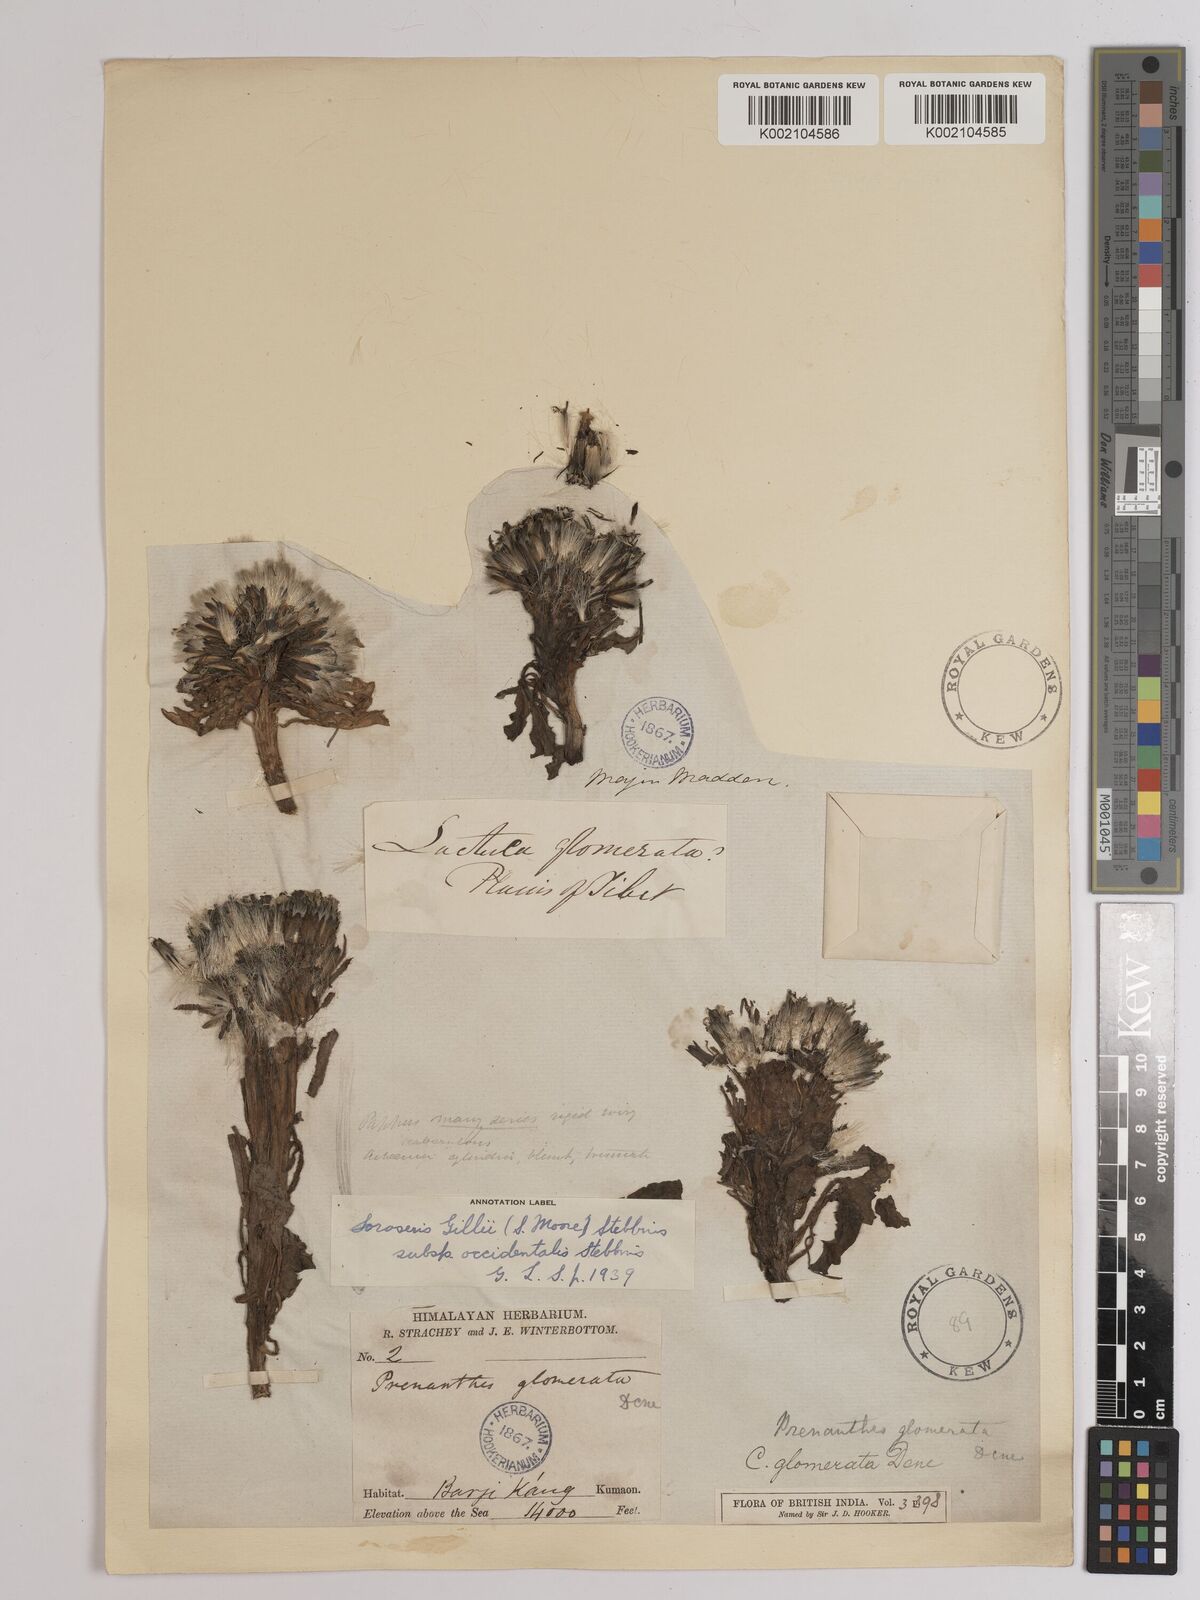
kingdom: Plantae
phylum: Tracheophyta
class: Magnoliopsida
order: Asterales
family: Asteraceae
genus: Soroseris
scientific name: Soroseris pumila
